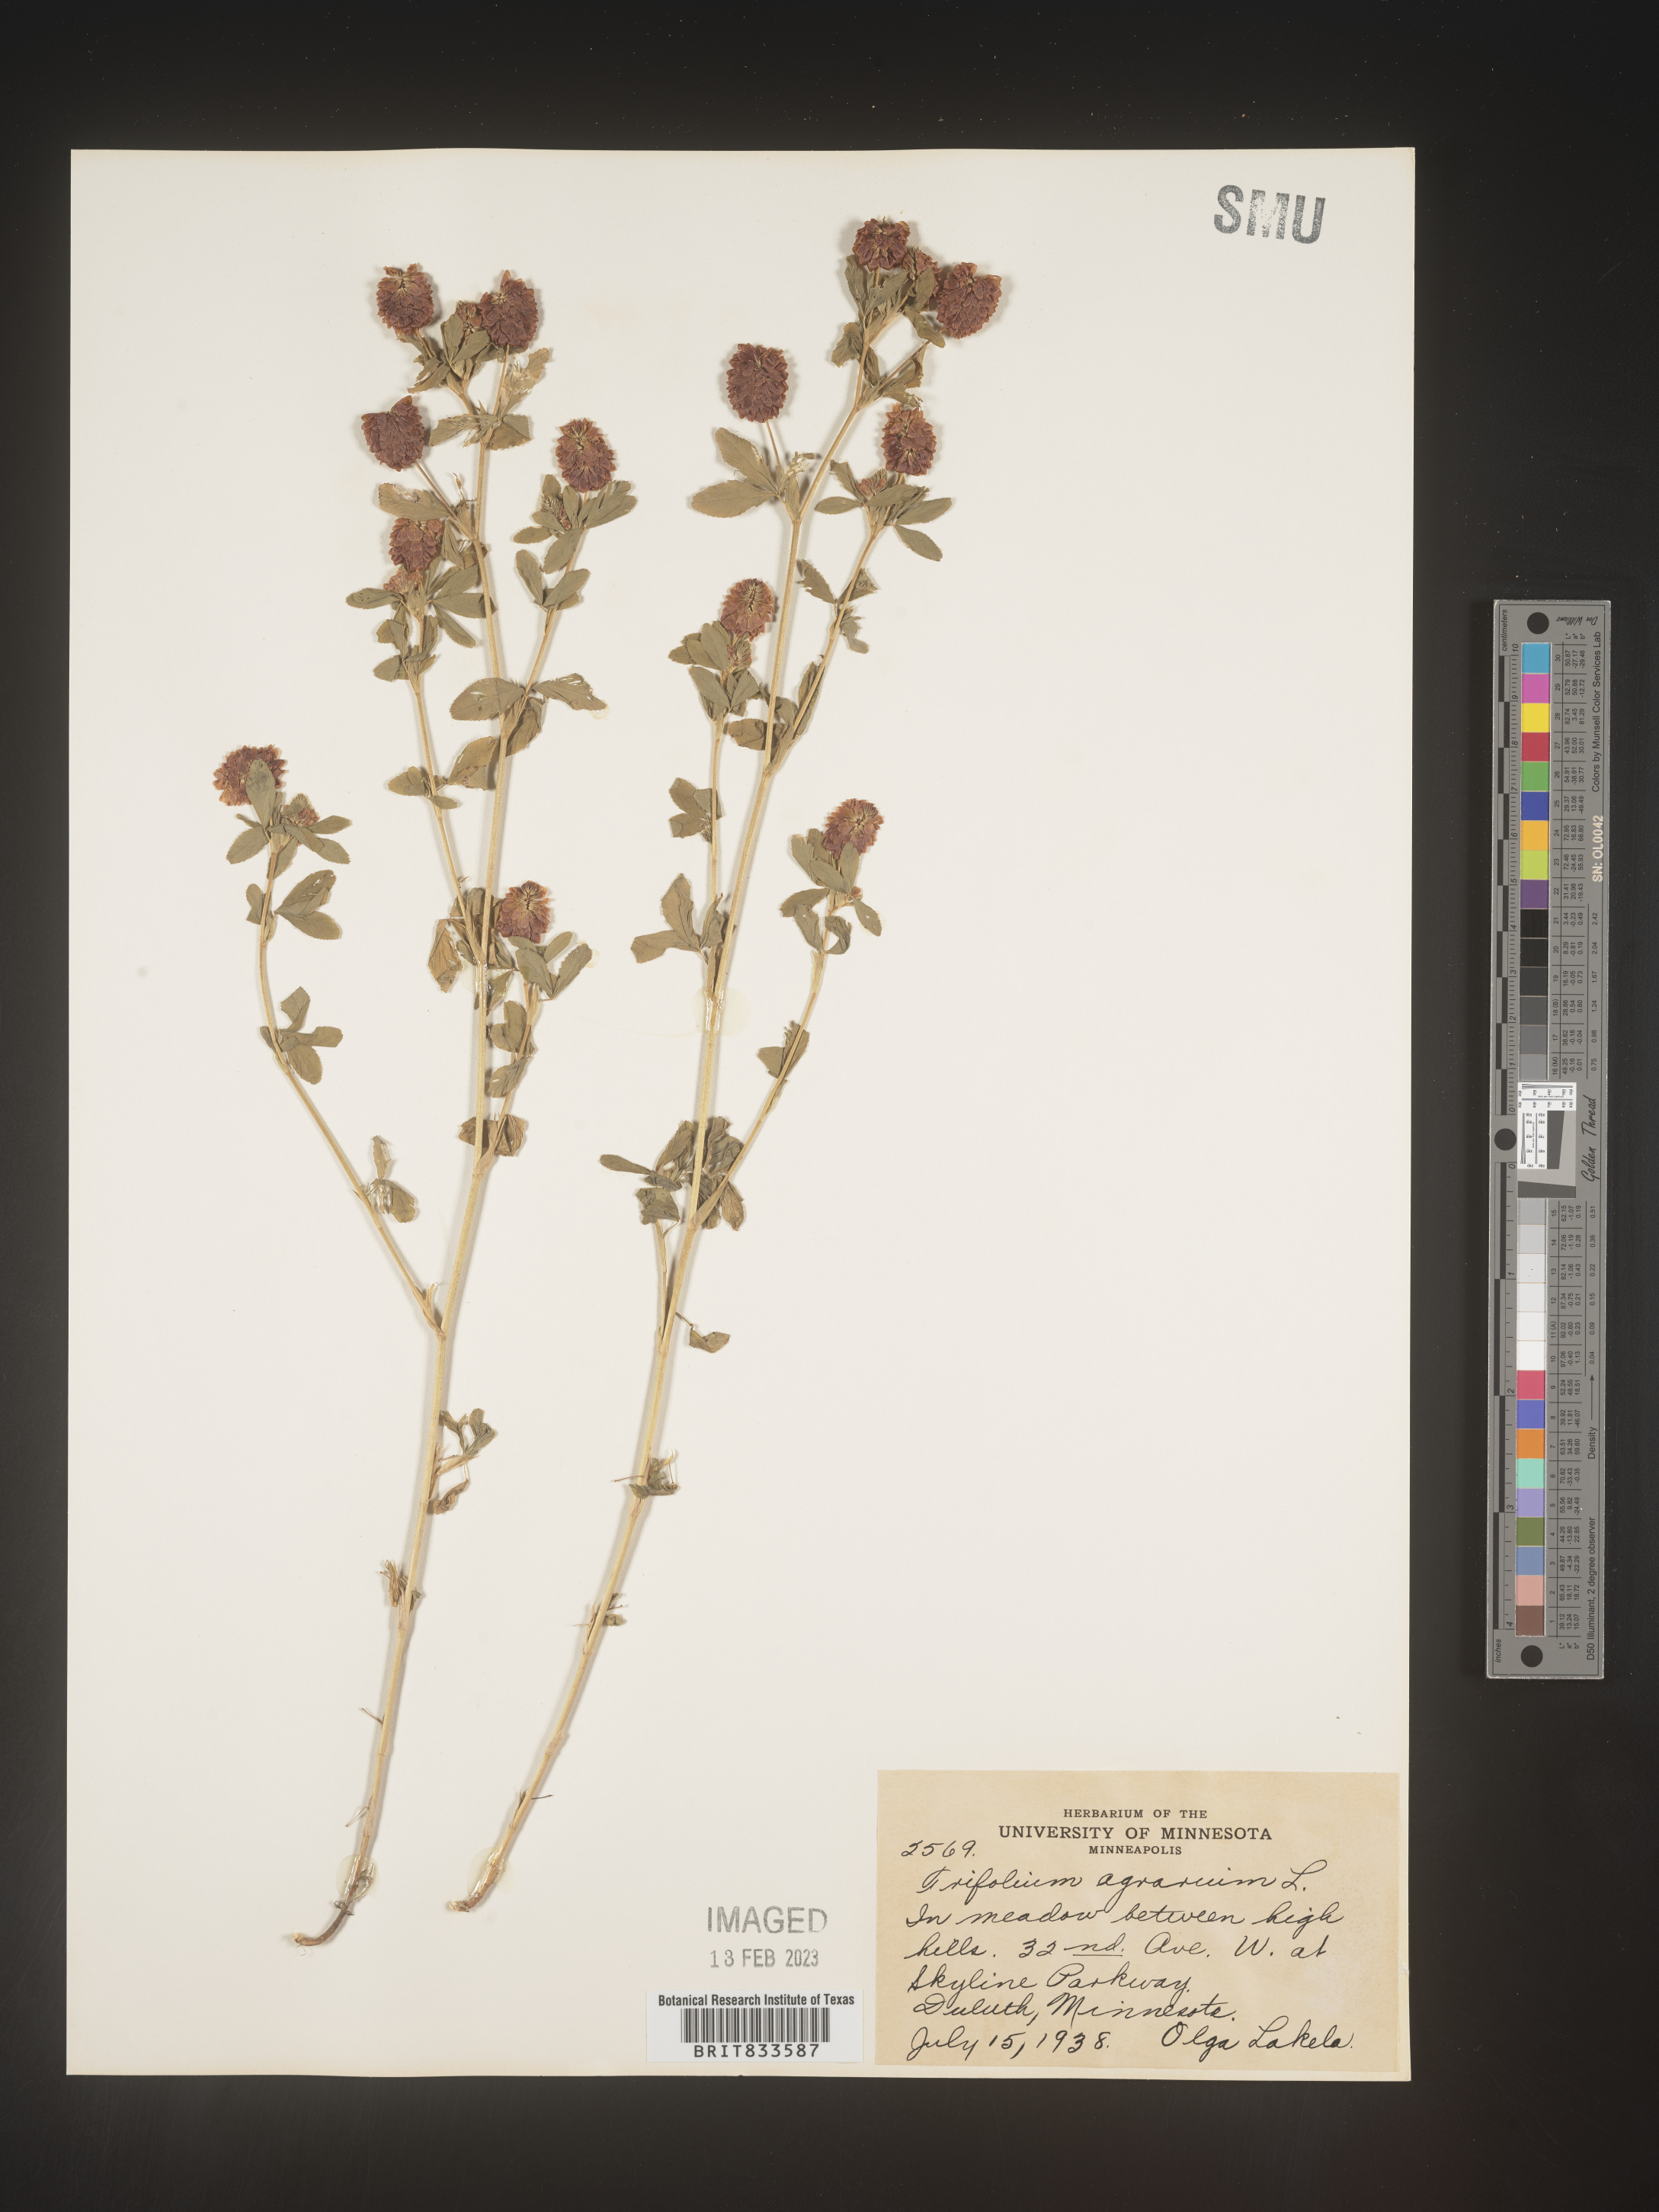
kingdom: Plantae
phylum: Tracheophyta
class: Magnoliopsida
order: Fabales
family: Fabaceae
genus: Trifolium
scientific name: Trifolium agrarium
